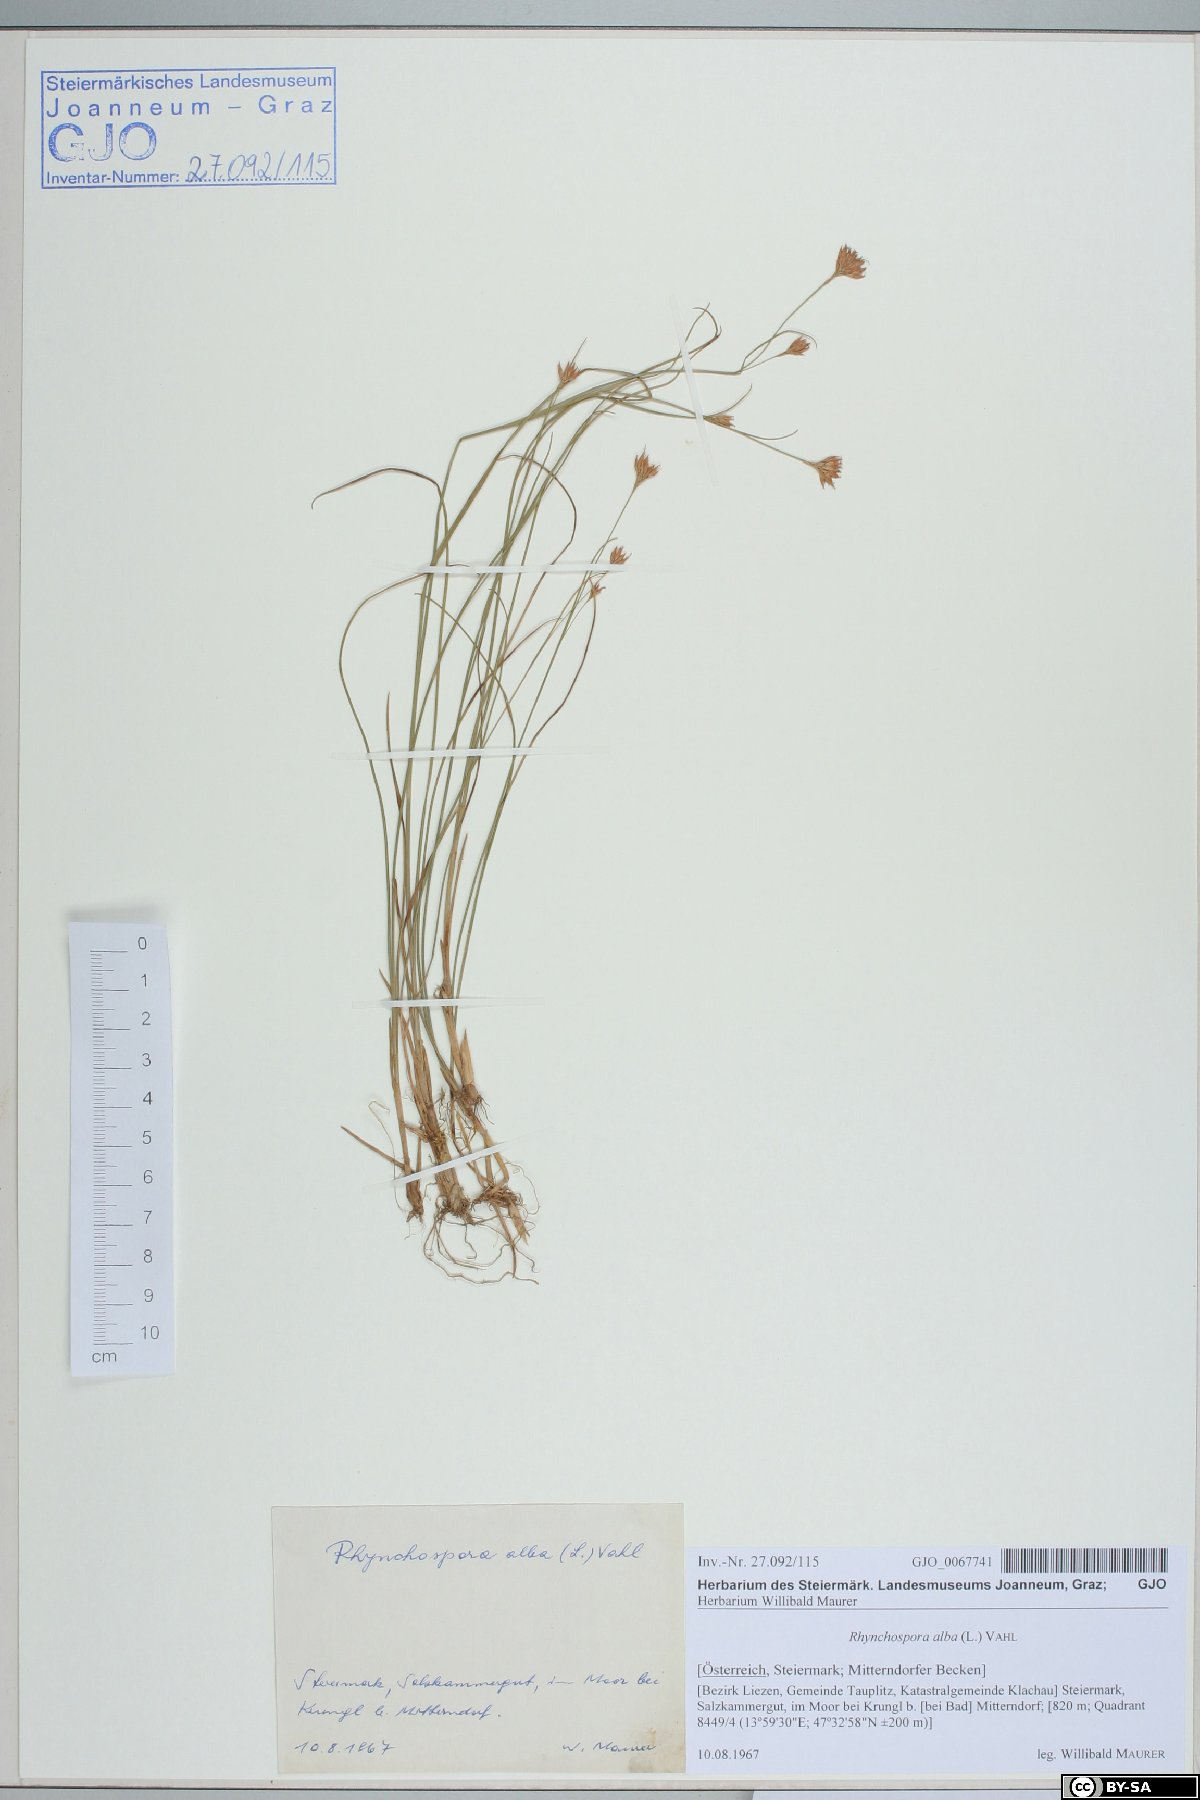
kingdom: Plantae
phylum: Tracheophyta
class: Liliopsida
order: Poales
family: Cyperaceae
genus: Rhynchospora
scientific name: Rhynchospora alba
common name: White beak-sedge
